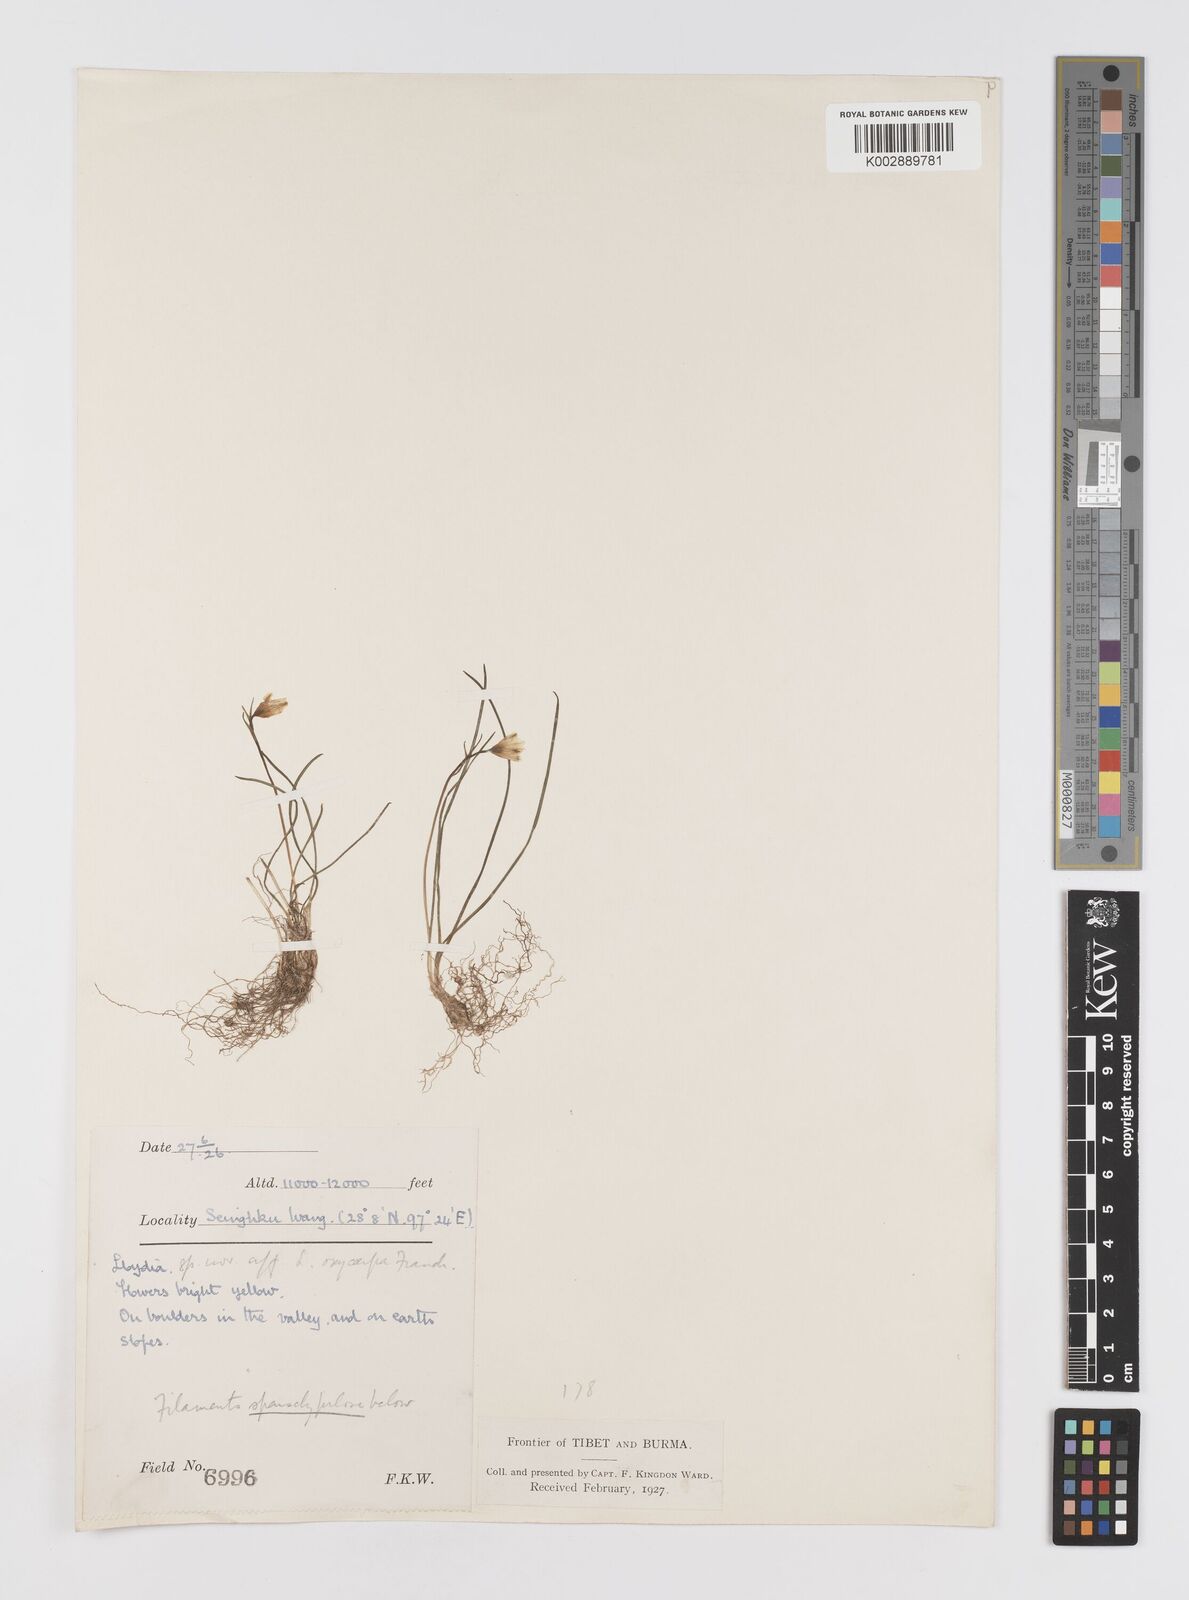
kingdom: Plantae
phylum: Tracheophyta
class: Liliopsida
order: Liliales
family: Liliaceae
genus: Gagea
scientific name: Gagea
